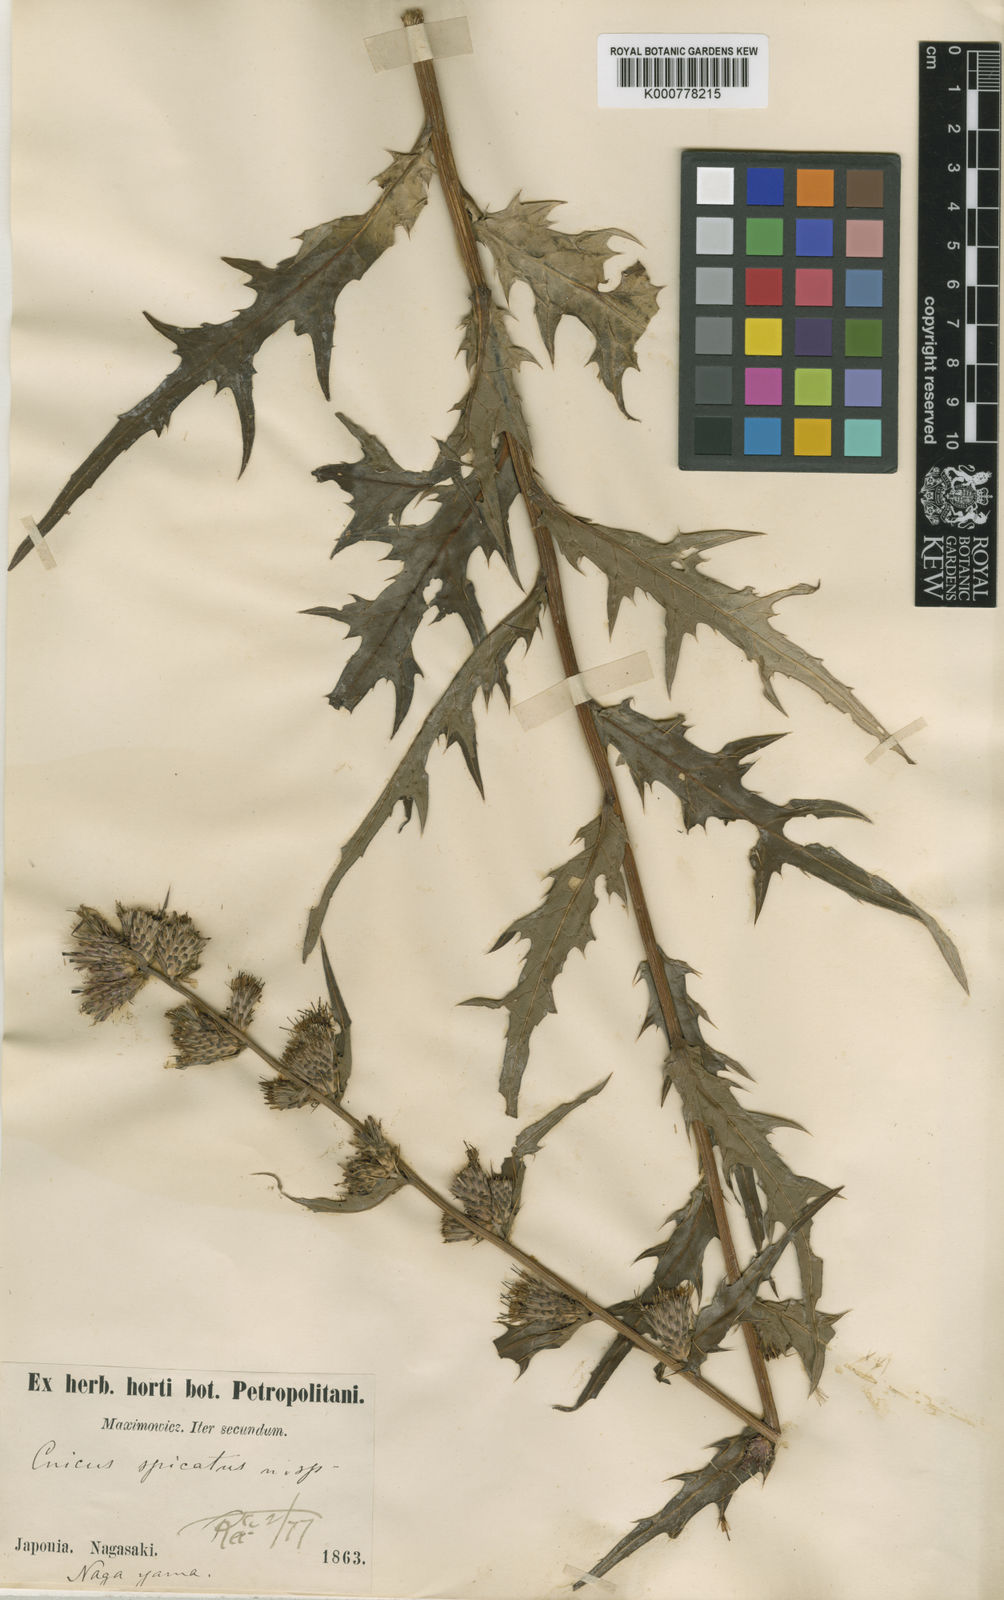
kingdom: Plantae
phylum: Tracheophyta
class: Magnoliopsida
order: Asterales
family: Asteraceae
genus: Cirsium
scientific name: Cirsium spicatum
